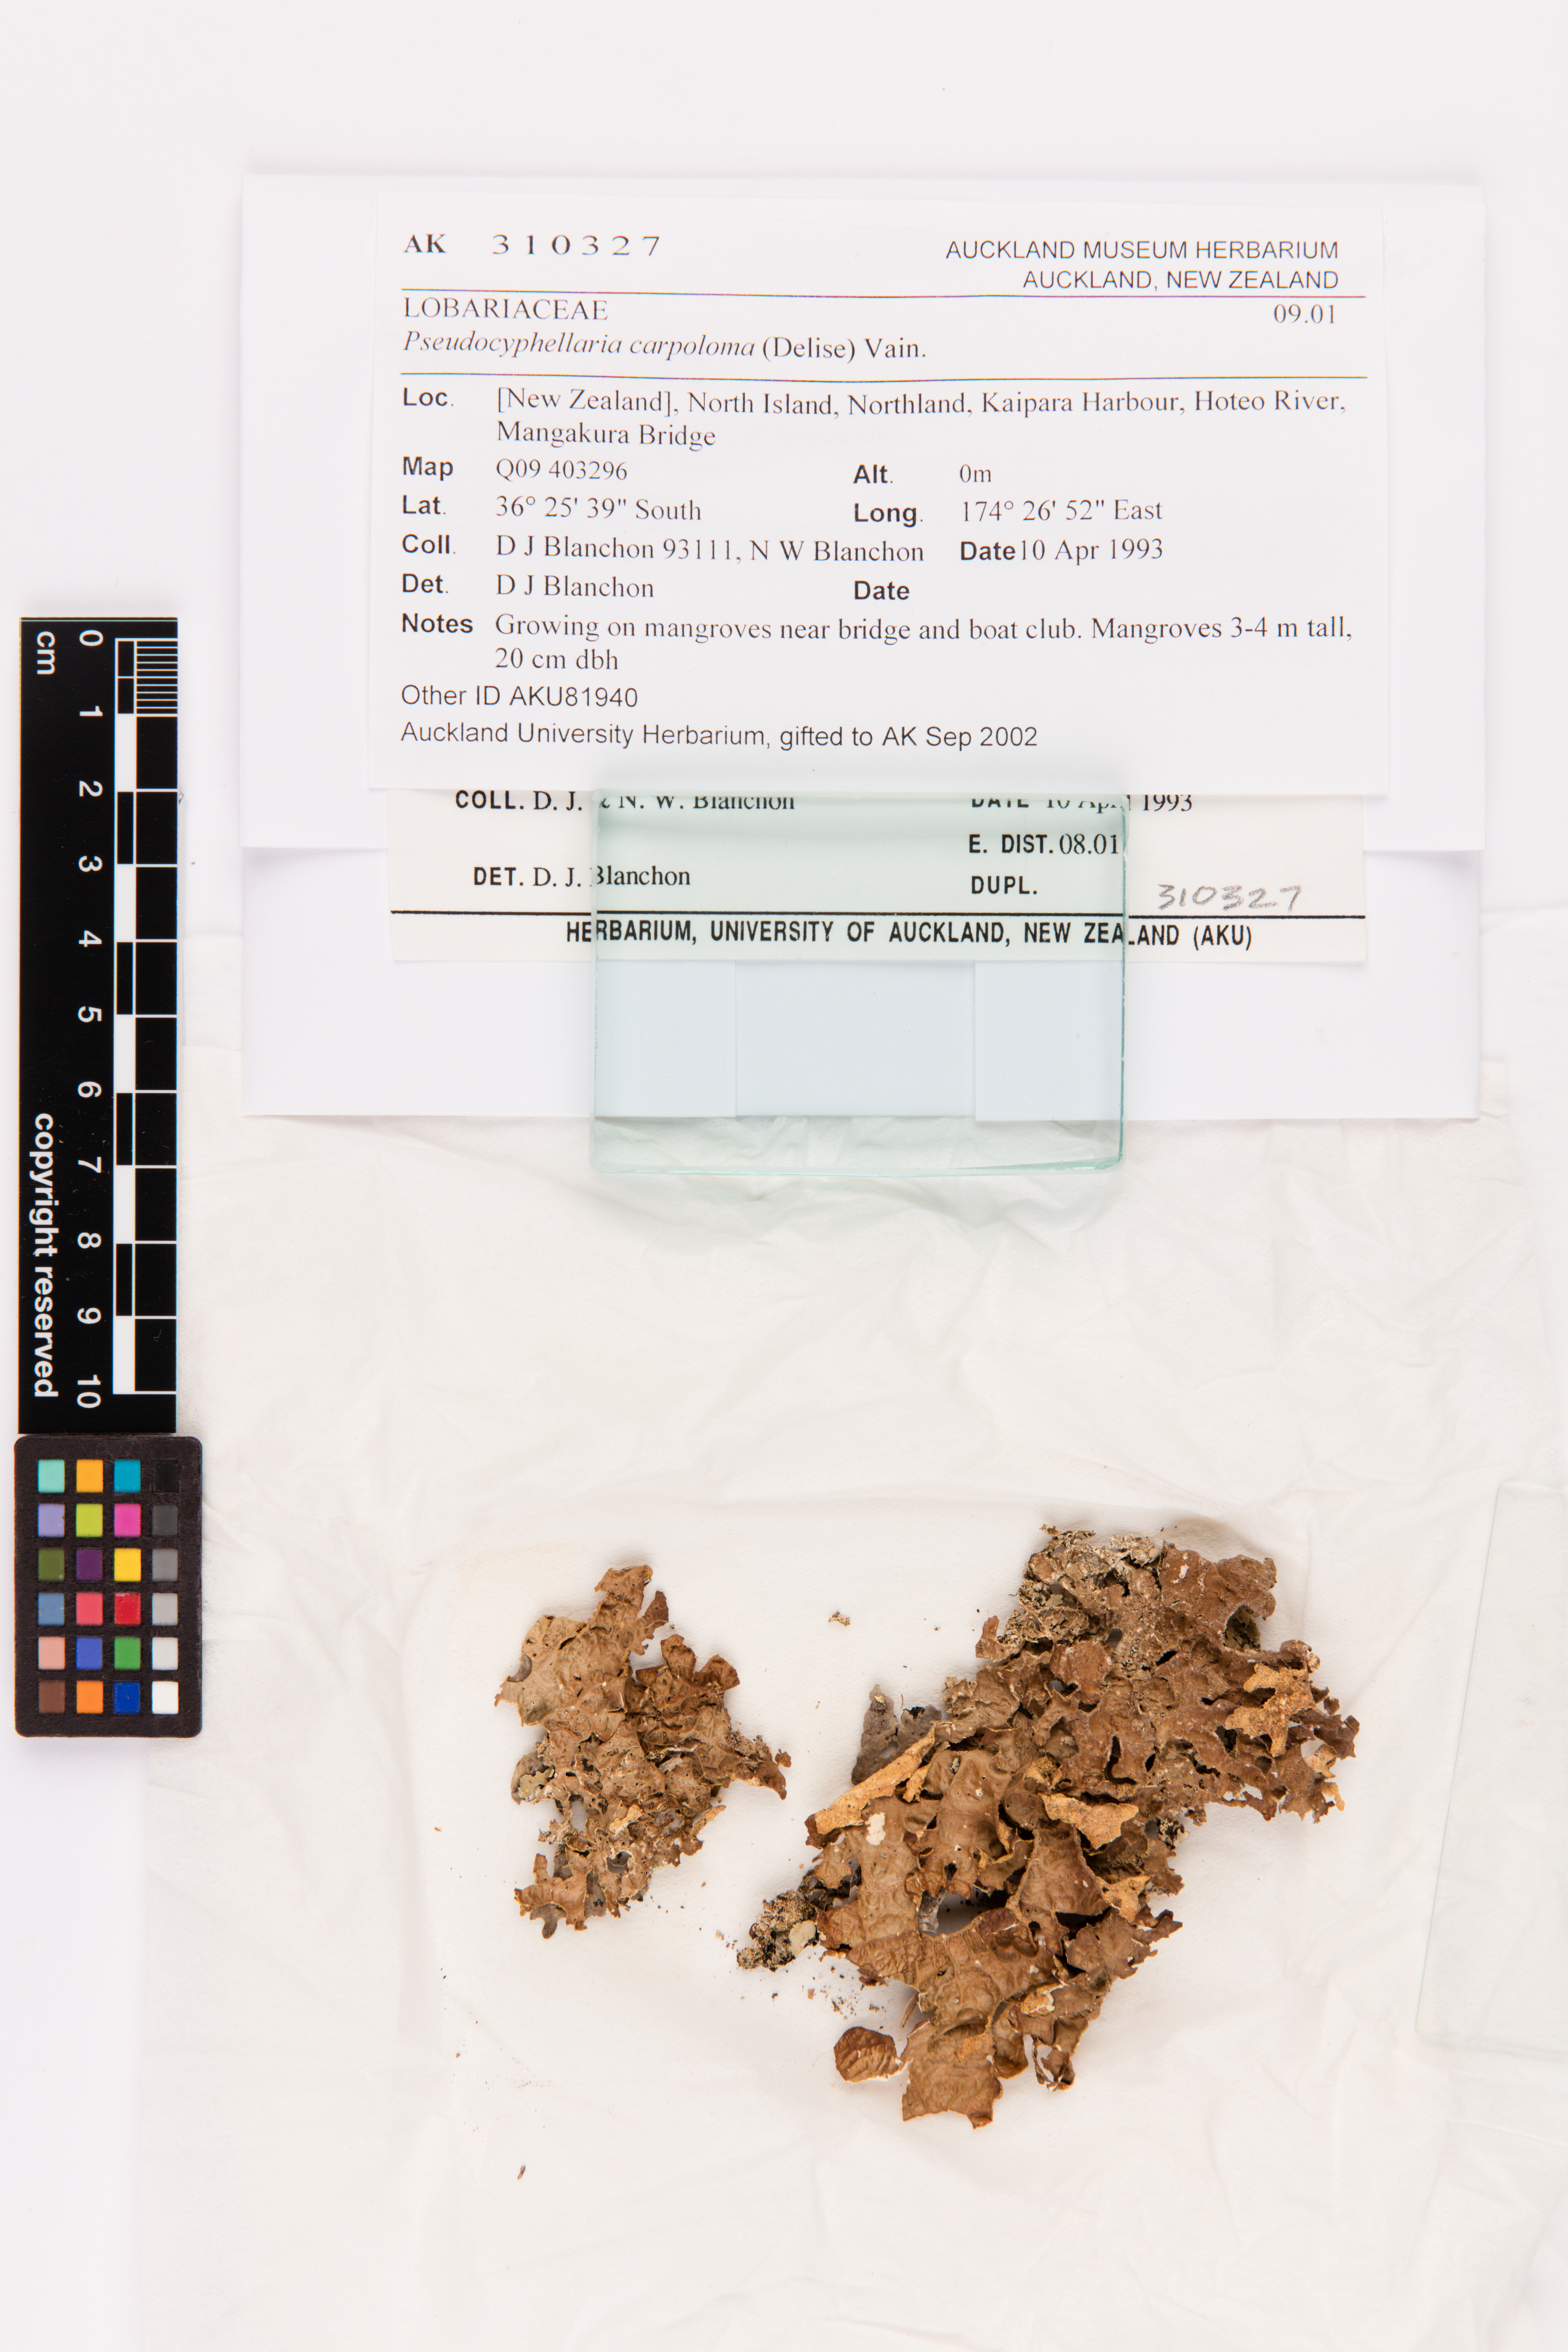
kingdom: Fungi
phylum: Ascomycota
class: Lecanoromycetes
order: Peltigerales
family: Lobariaceae
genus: Pseudocyphellaria
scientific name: Pseudocyphellaria carpoloma
